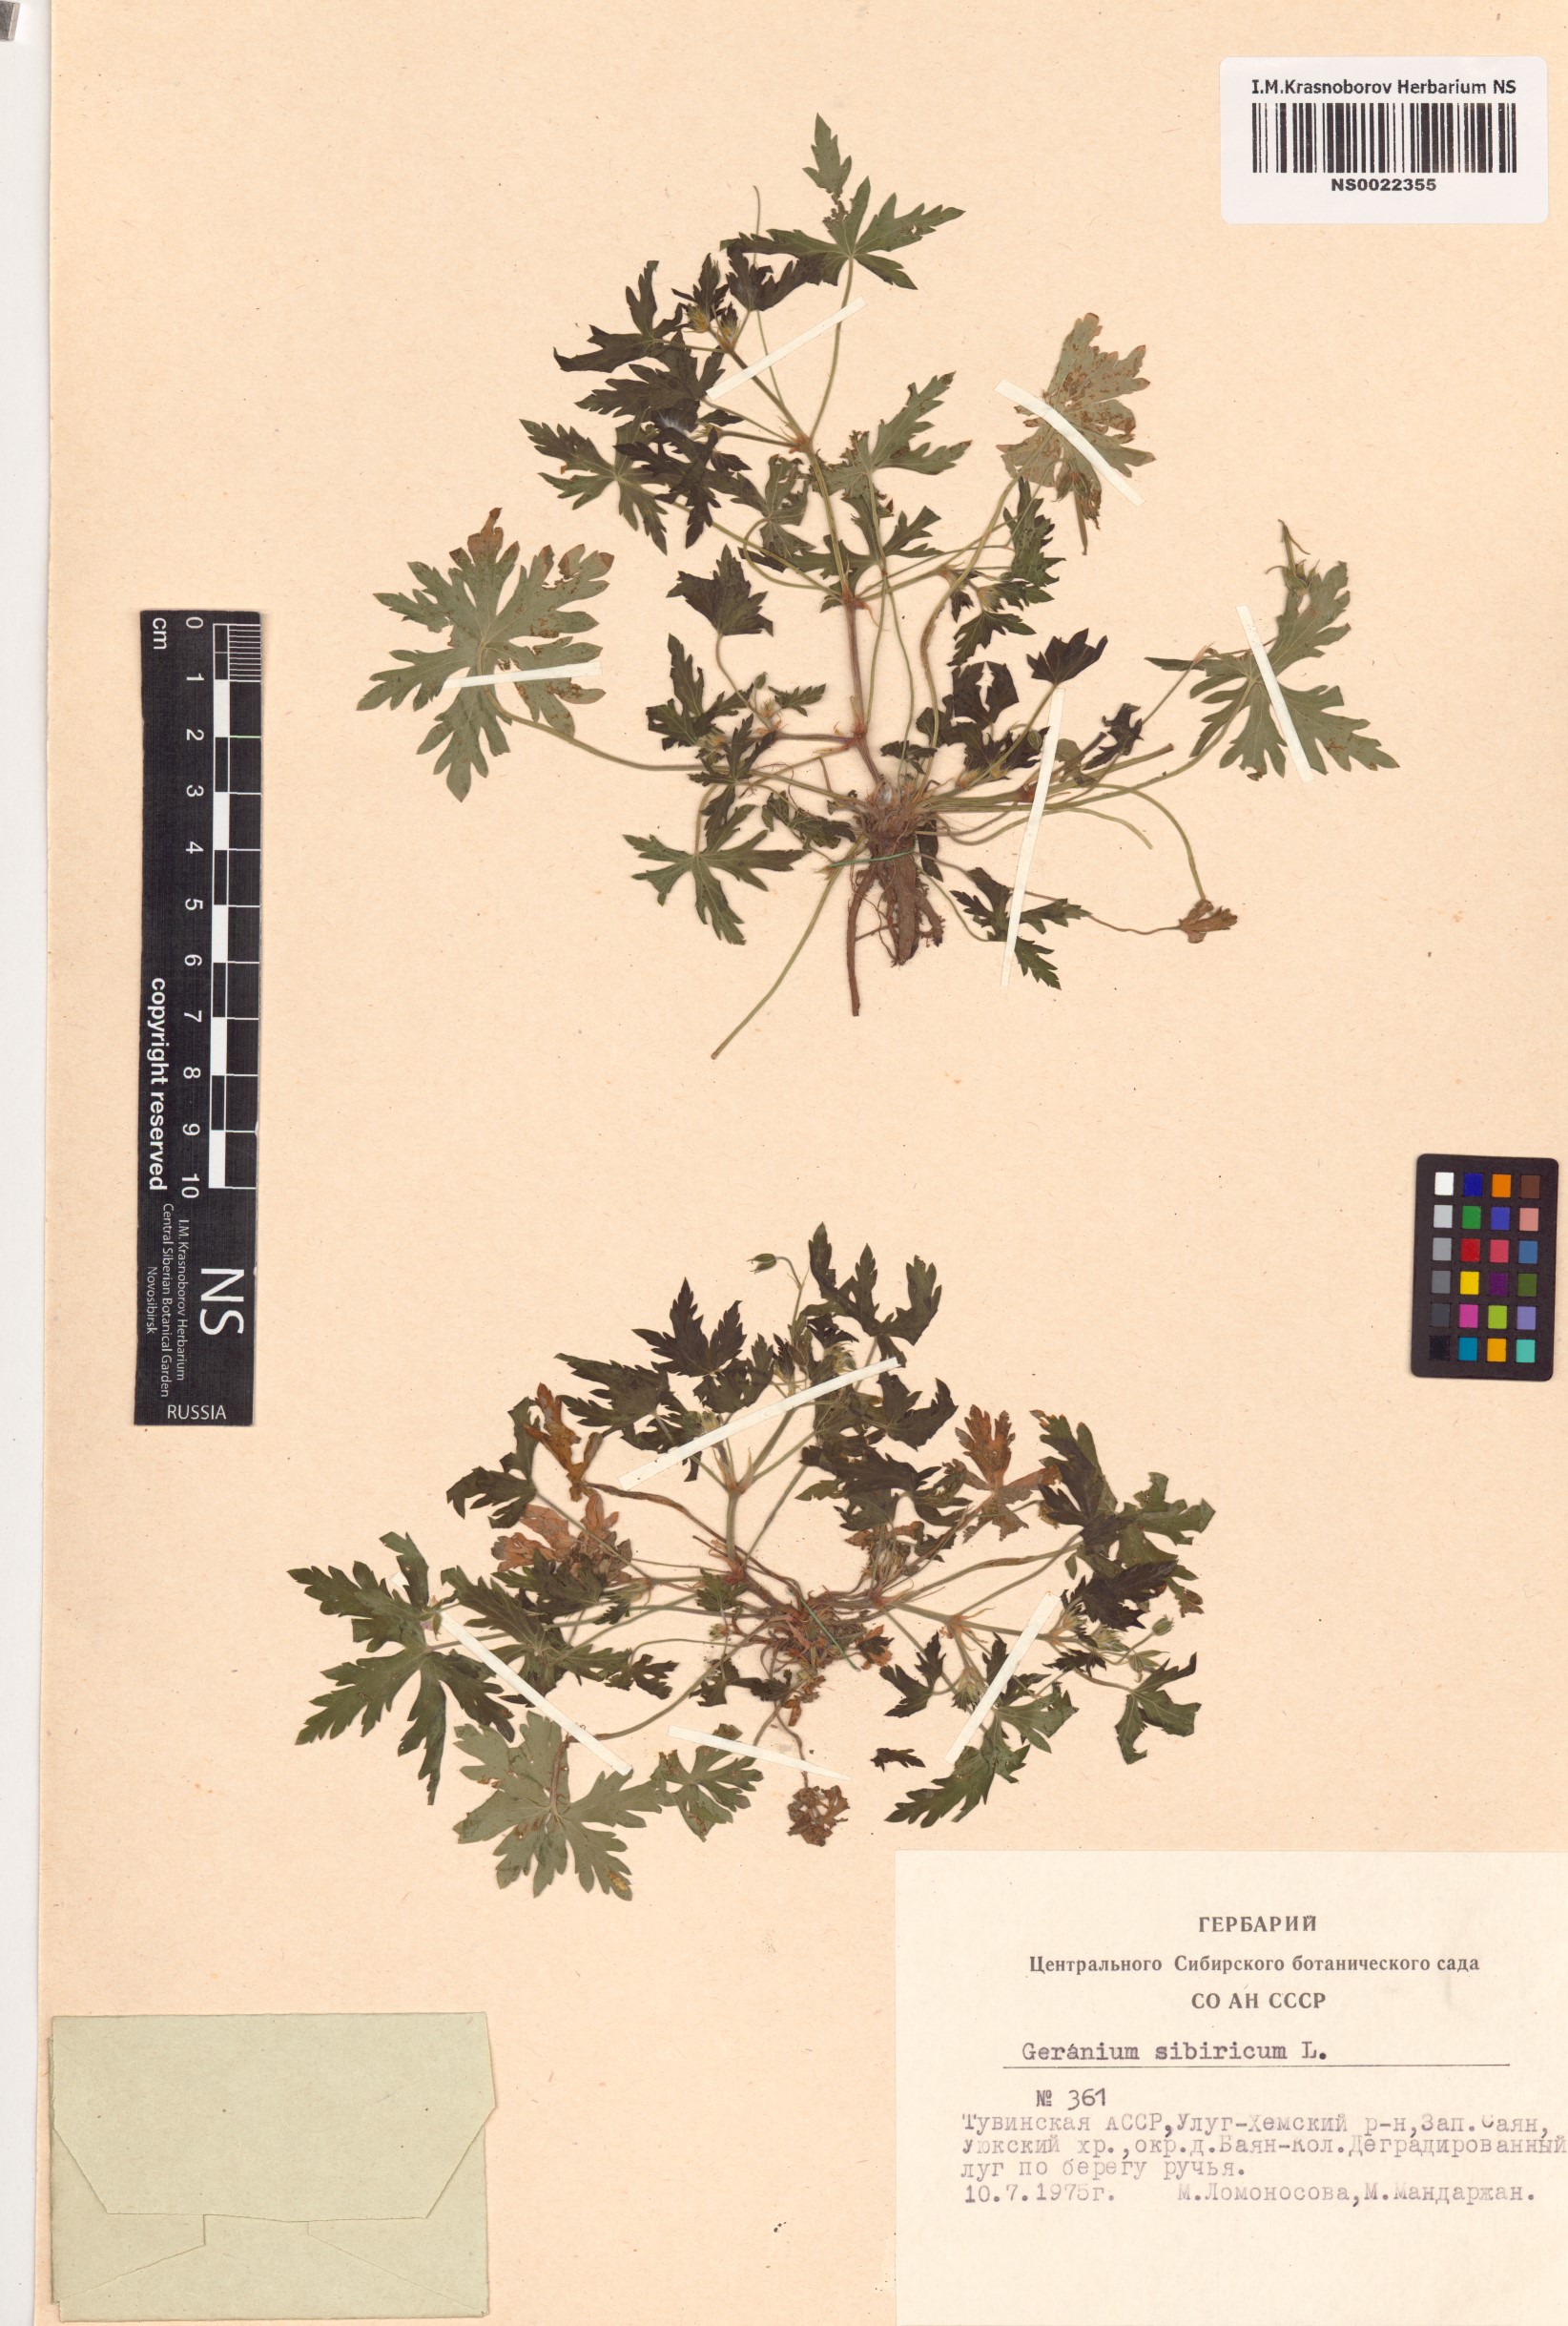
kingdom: Plantae
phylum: Tracheophyta
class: Magnoliopsida
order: Geraniales
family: Geraniaceae
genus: Geranium
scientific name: Geranium sibiricum
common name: Siberian crane's-bill
